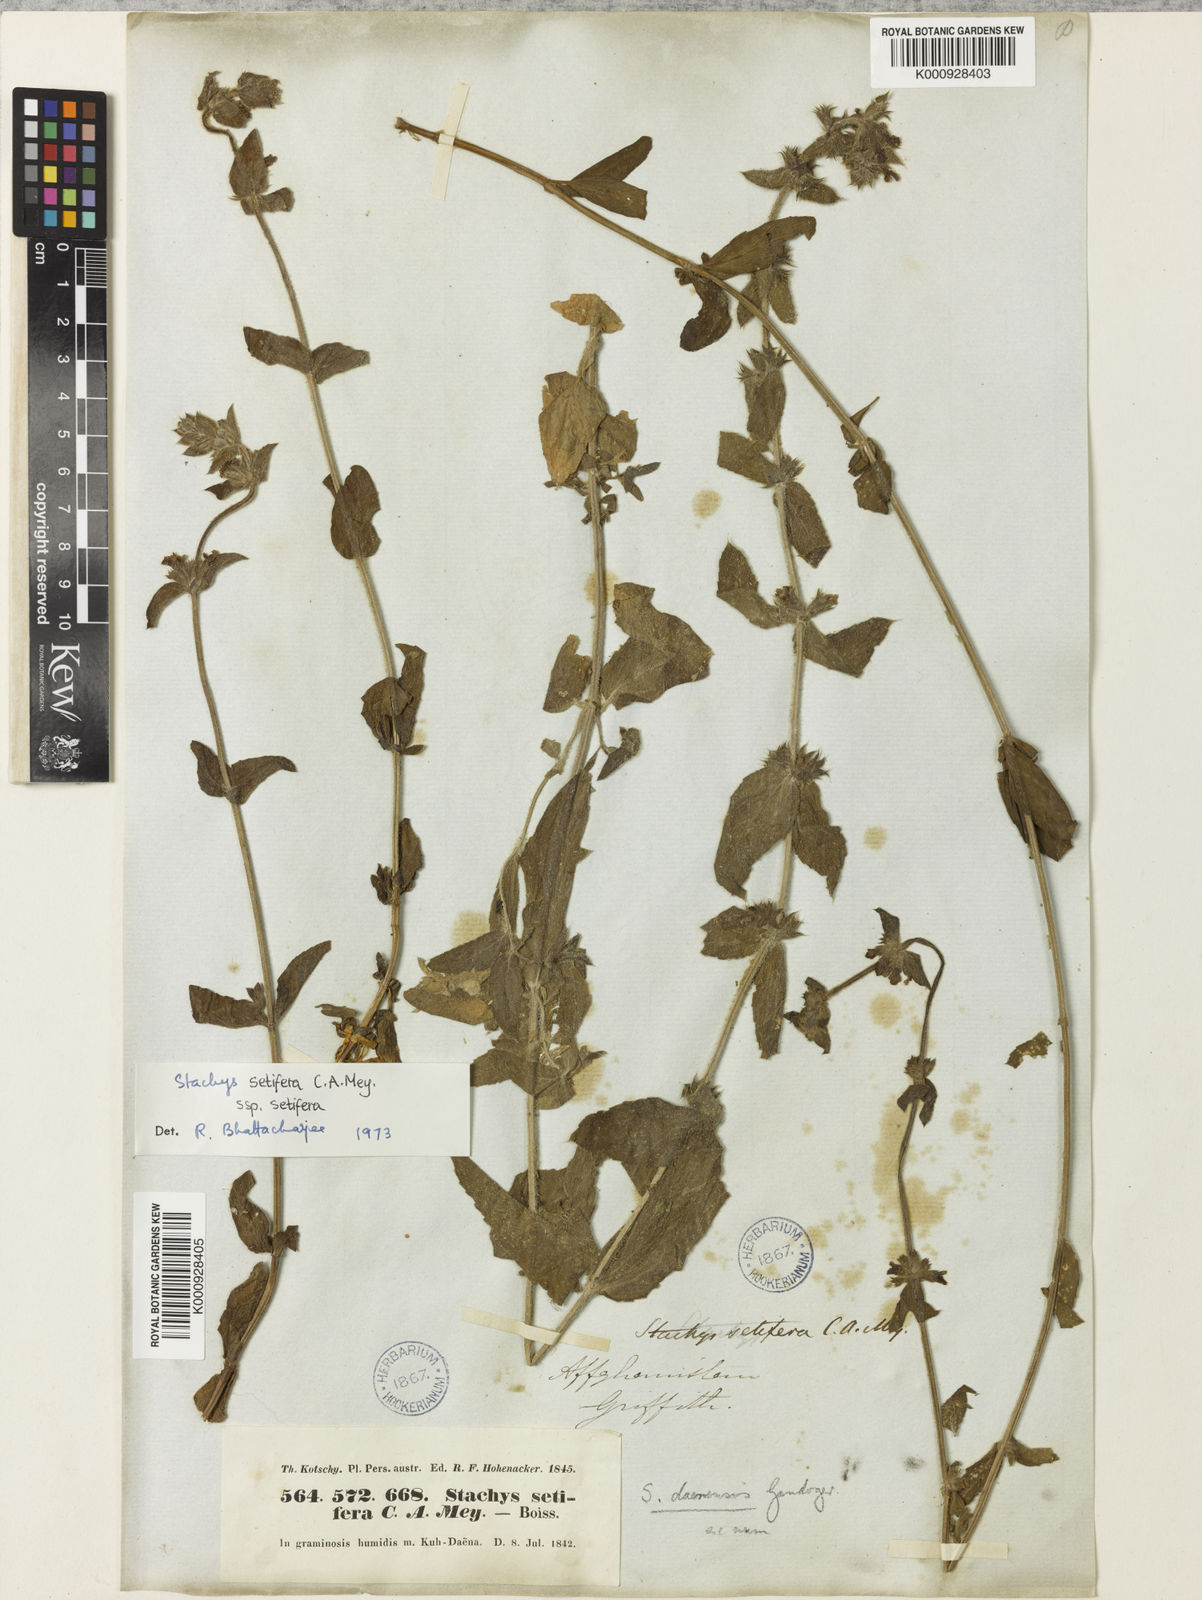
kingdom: Plantae
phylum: Tracheophyta
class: Magnoliopsida
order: Lamiales
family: Lamiaceae
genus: Stachys
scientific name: Stachys setifera
